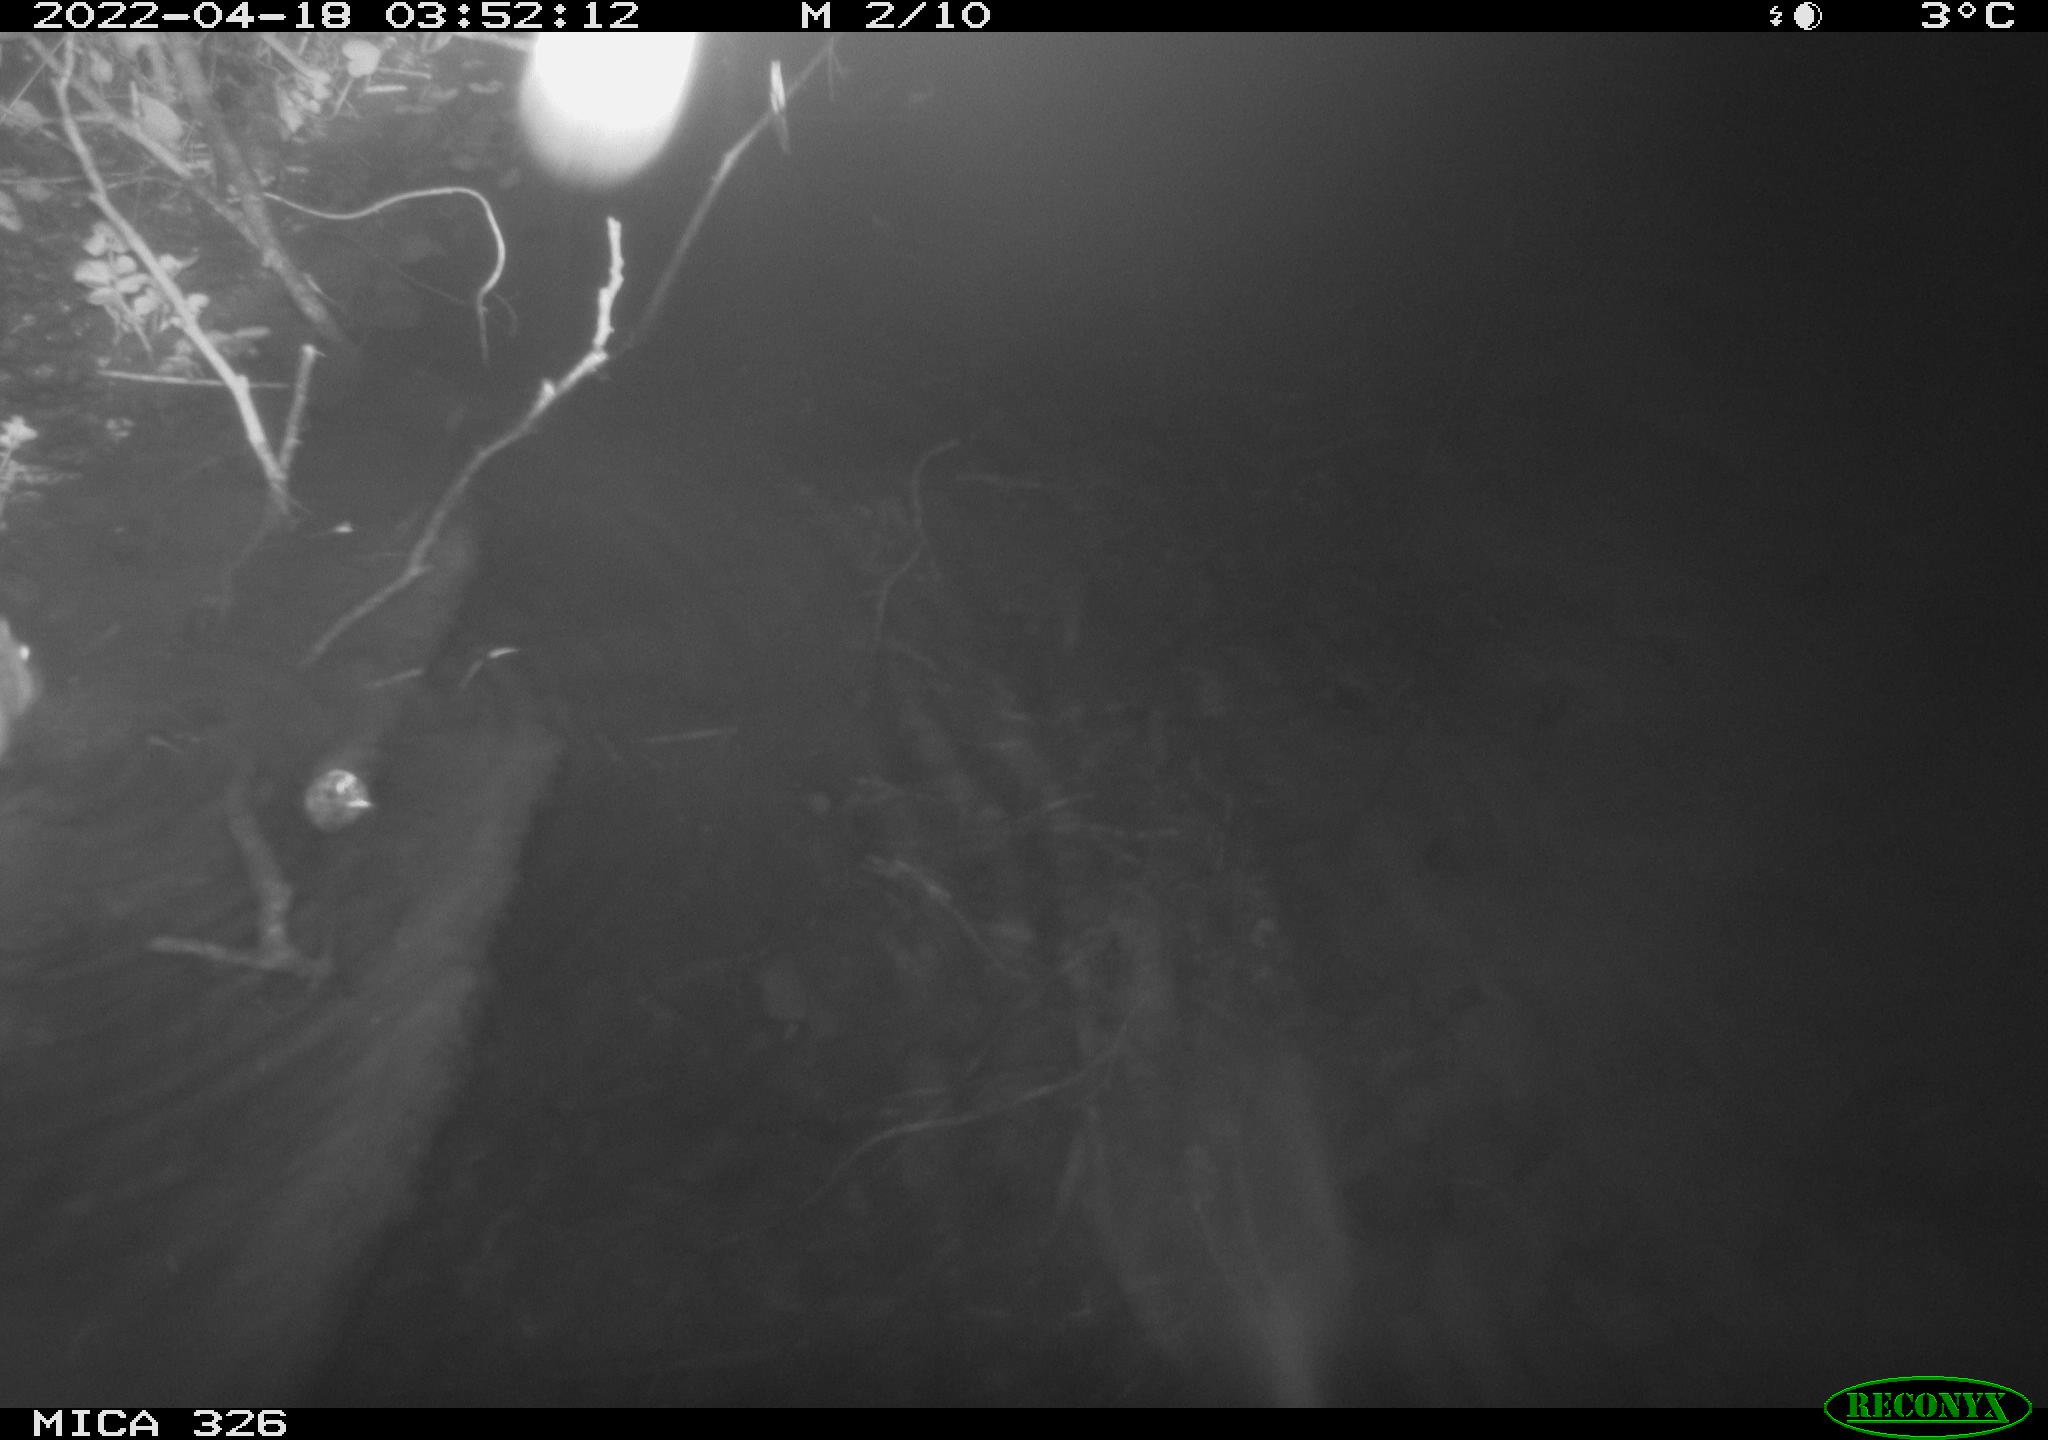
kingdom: Animalia
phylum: Chordata
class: Mammalia
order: Rodentia
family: Muridae
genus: Rattus
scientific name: Rattus norvegicus
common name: Brown rat
